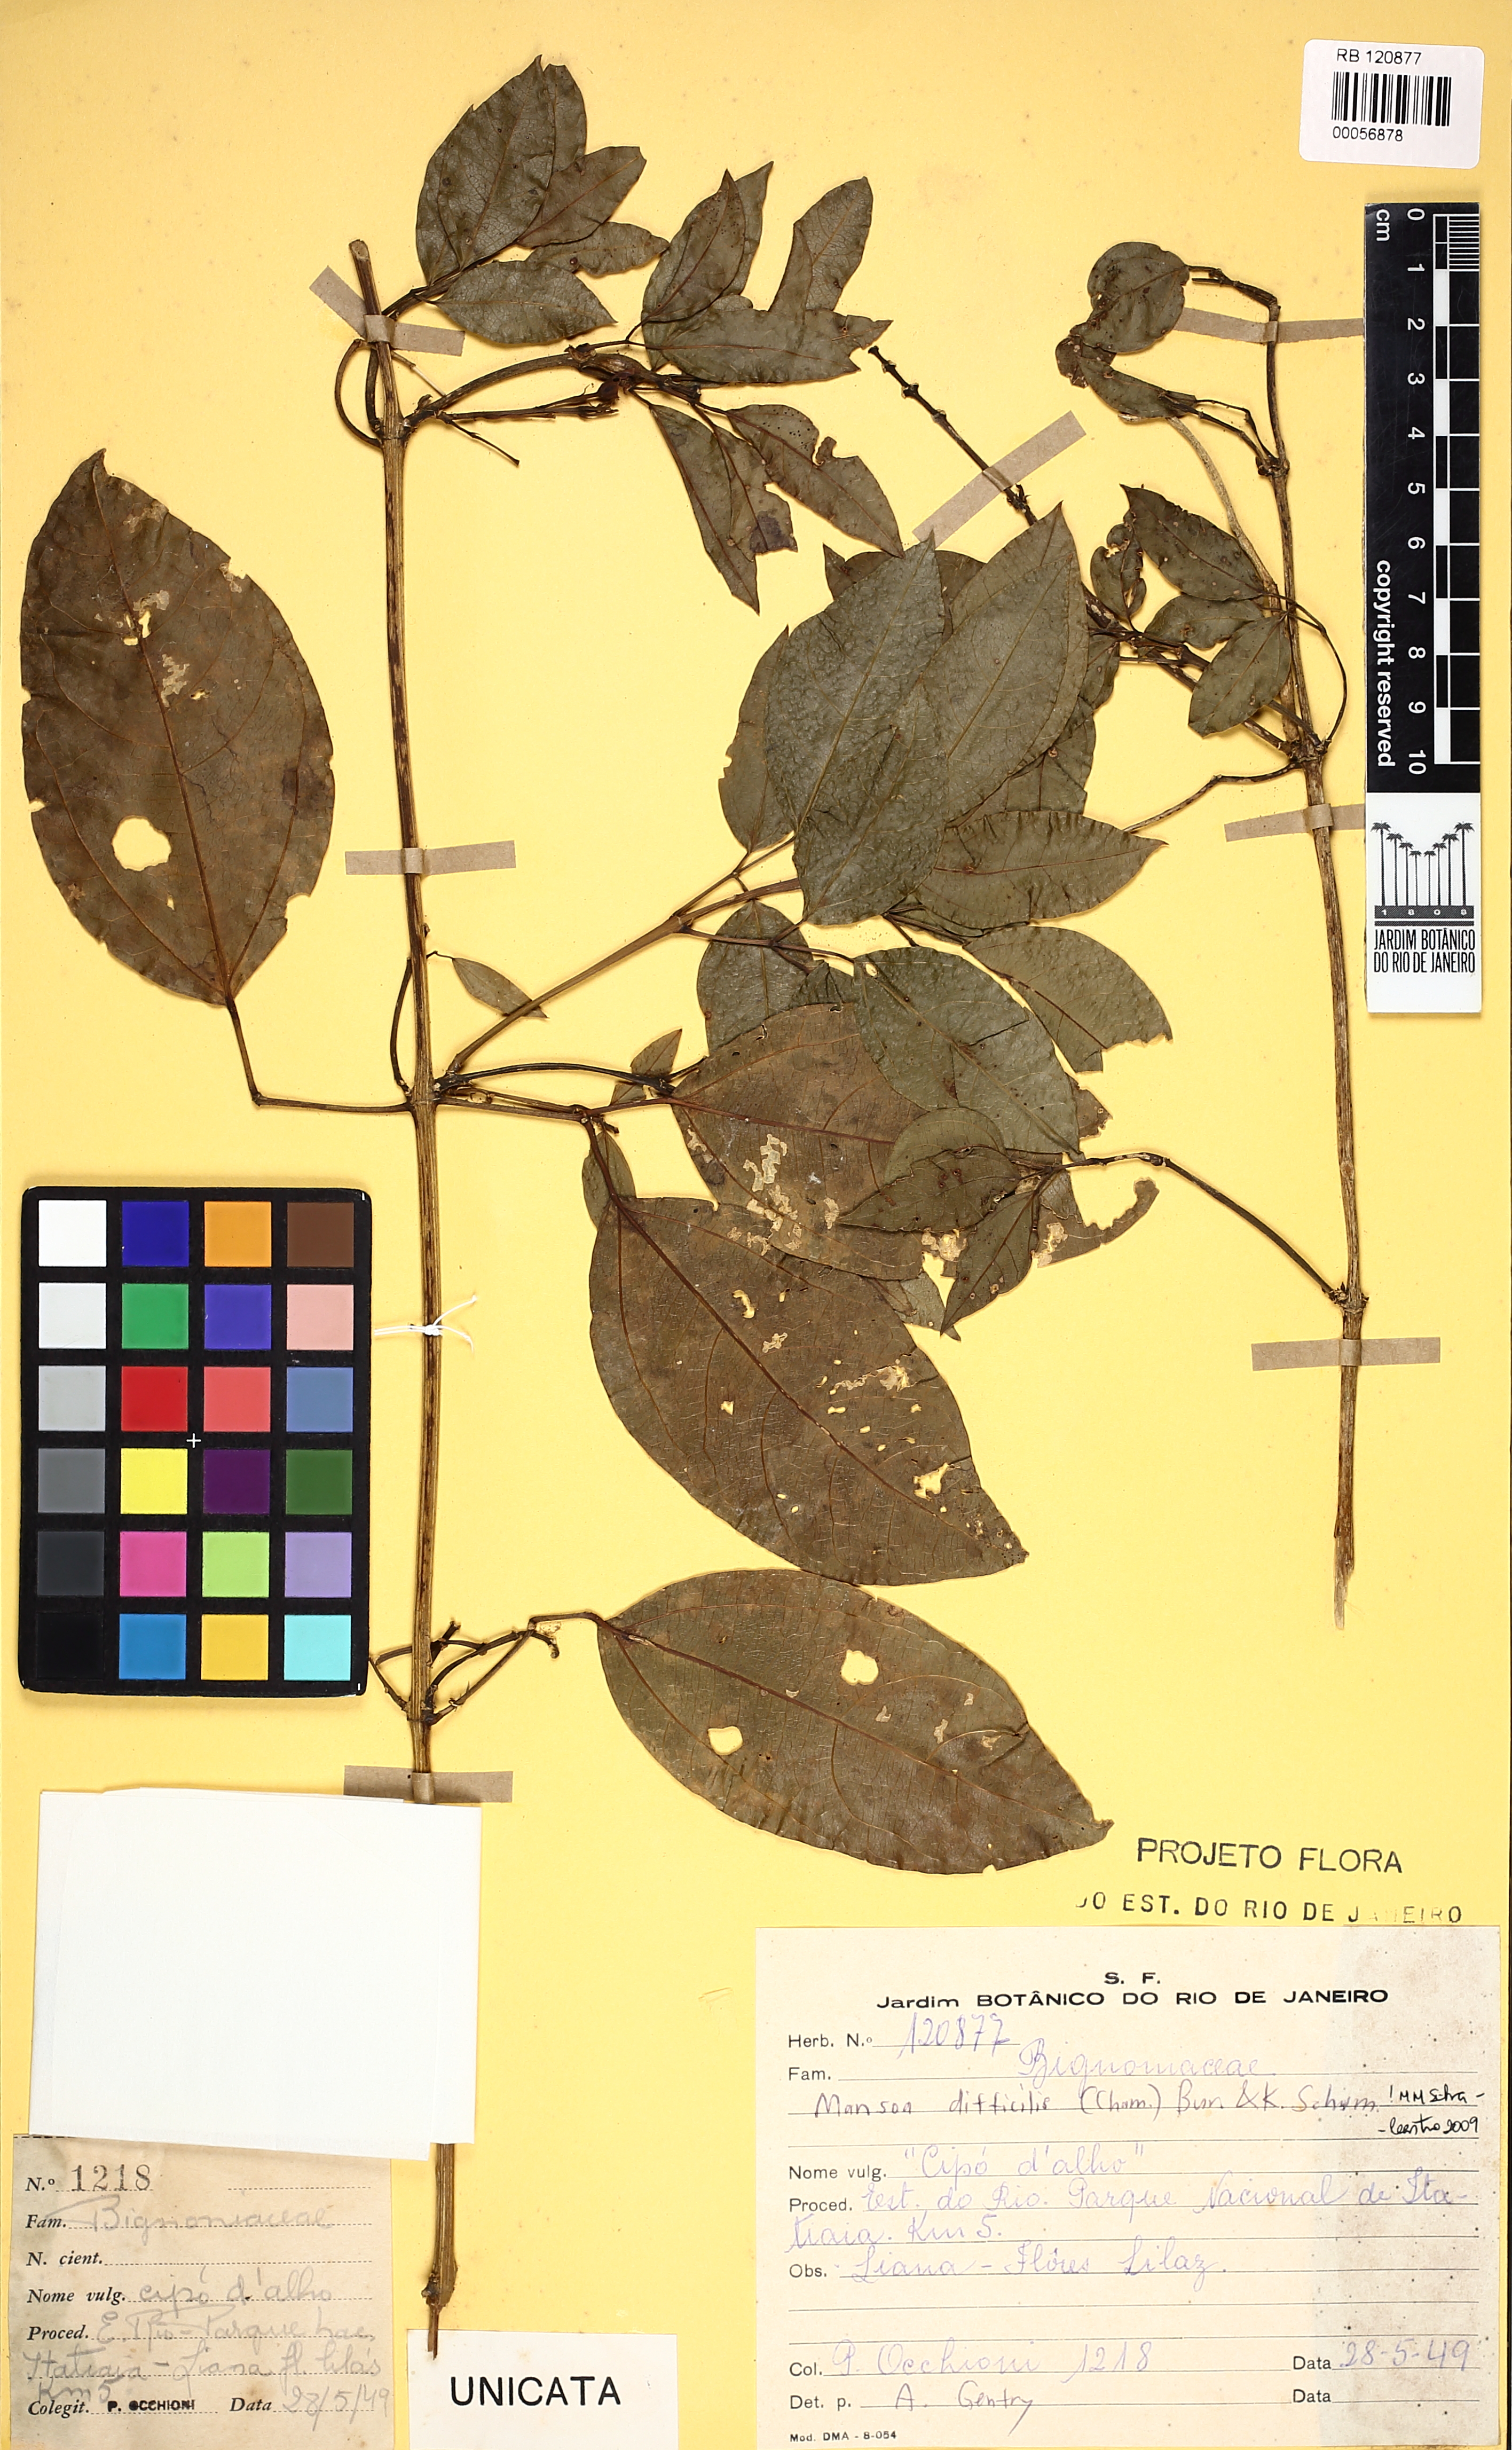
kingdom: Plantae
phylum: Tracheophyta
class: Magnoliopsida
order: Lamiales
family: Bignoniaceae
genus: Mansoa
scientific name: Mansoa difficilis
